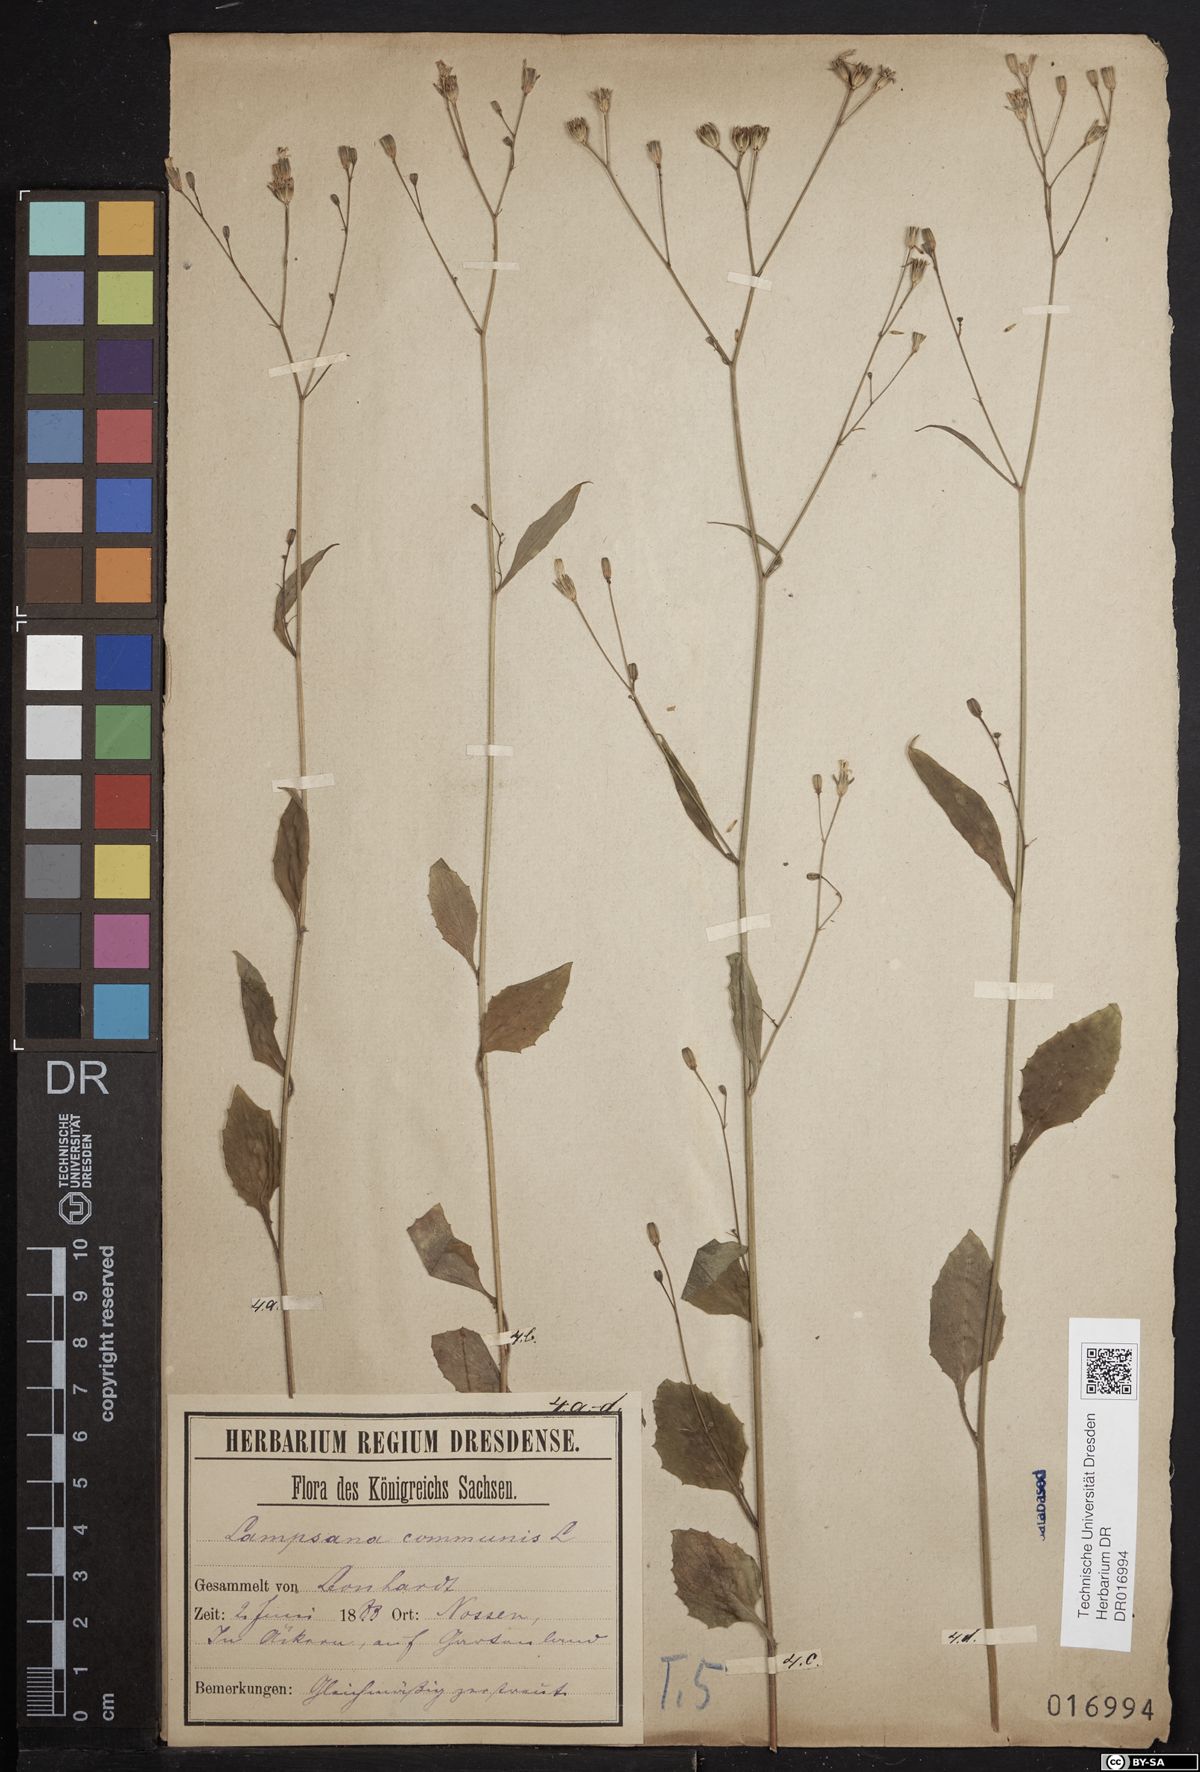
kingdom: Plantae
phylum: Tracheophyta
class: Magnoliopsida
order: Asterales
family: Asteraceae
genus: Lapsana
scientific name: Lapsana communis
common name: Nipplewort
